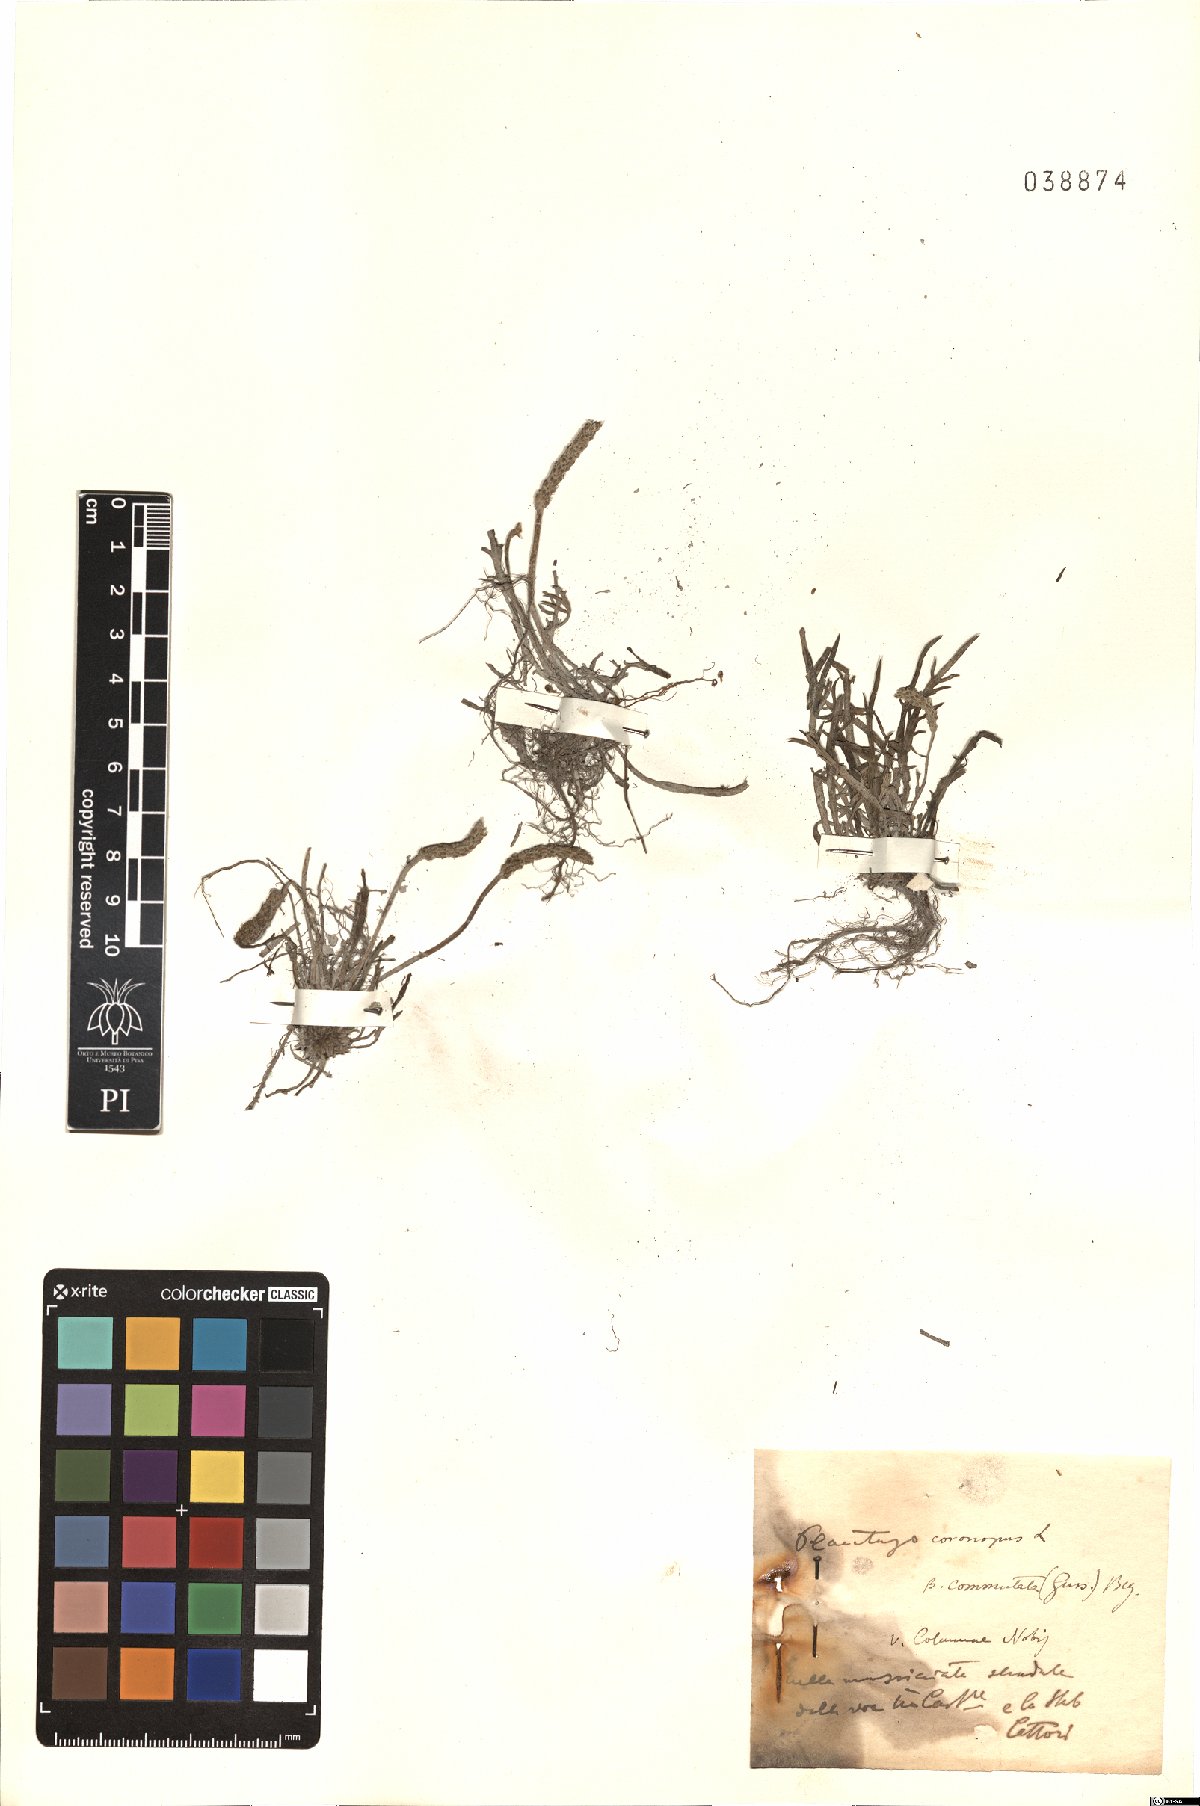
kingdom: Plantae
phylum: Tracheophyta
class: Magnoliopsida
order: Lamiales
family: Plantaginaceae
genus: Plantago
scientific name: Plantago weldenii
